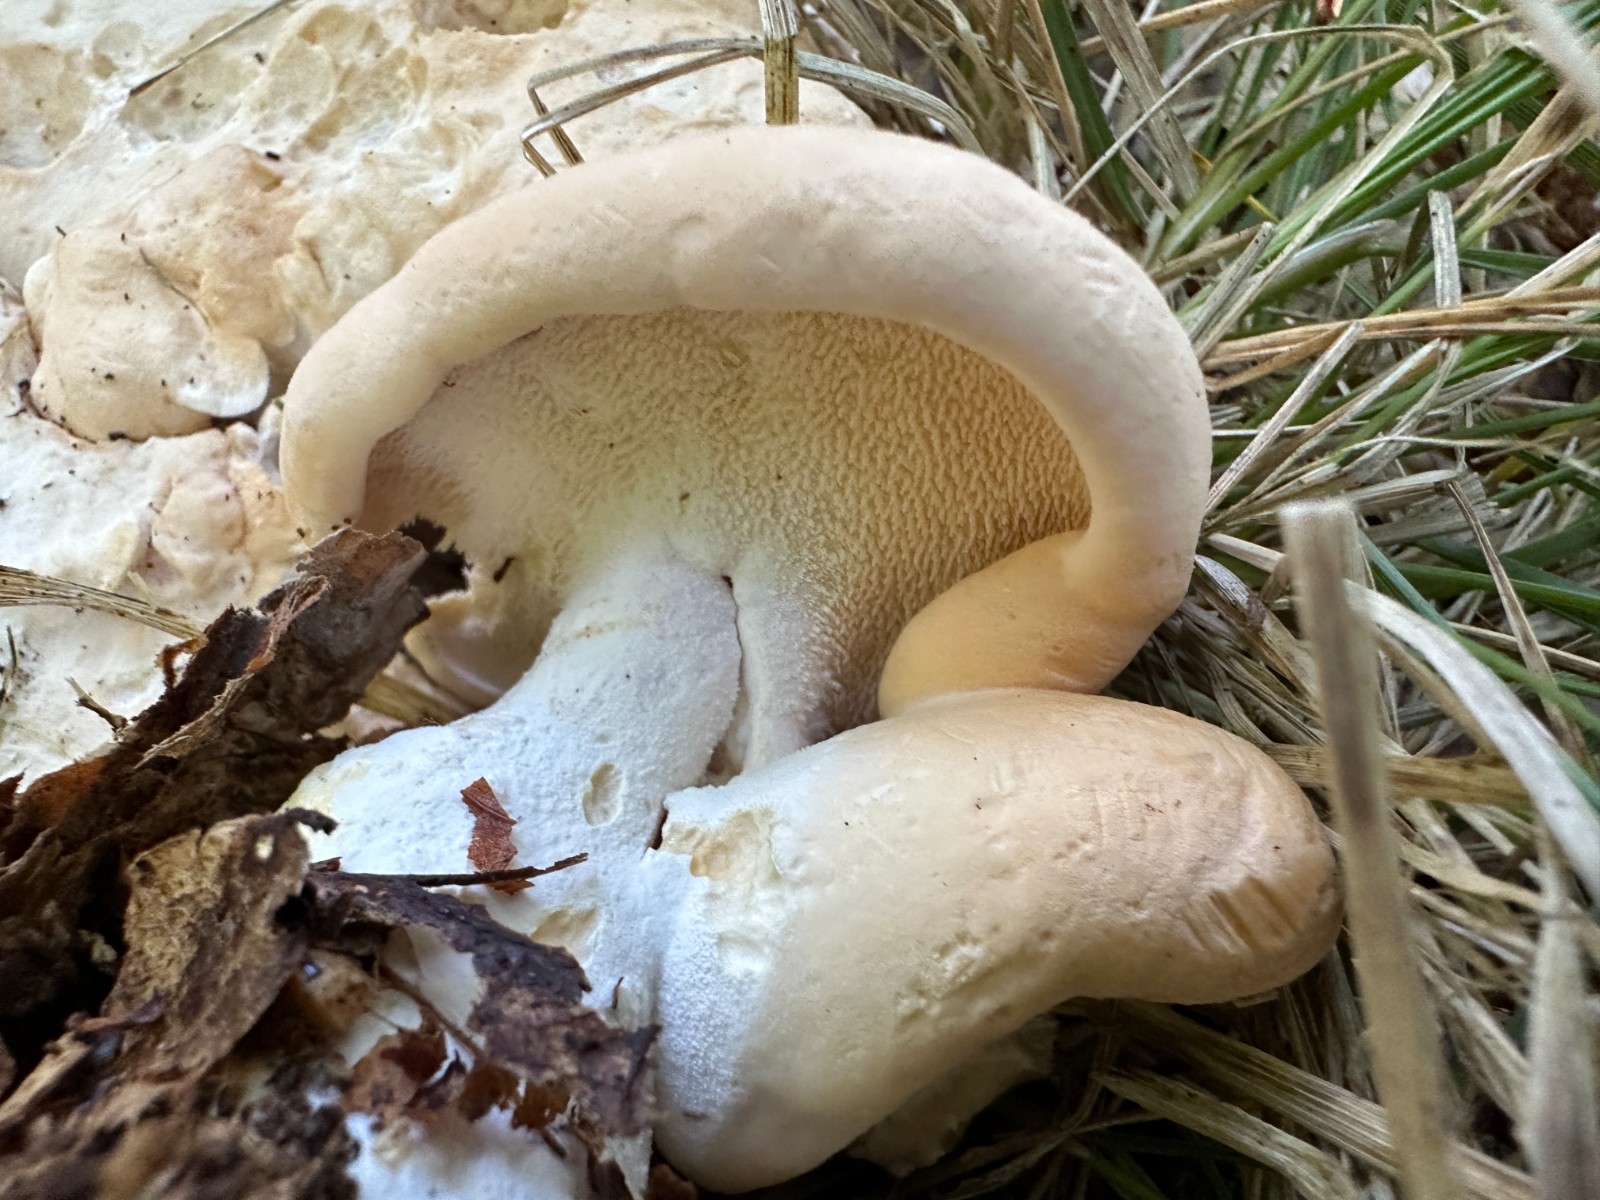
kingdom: Fungi
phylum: Basidiomycota
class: Agaricomycetes
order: Cantharellales
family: Hydnaceae
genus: Hydnum
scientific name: Hydnum repandum
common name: almindelig pigsvamp
